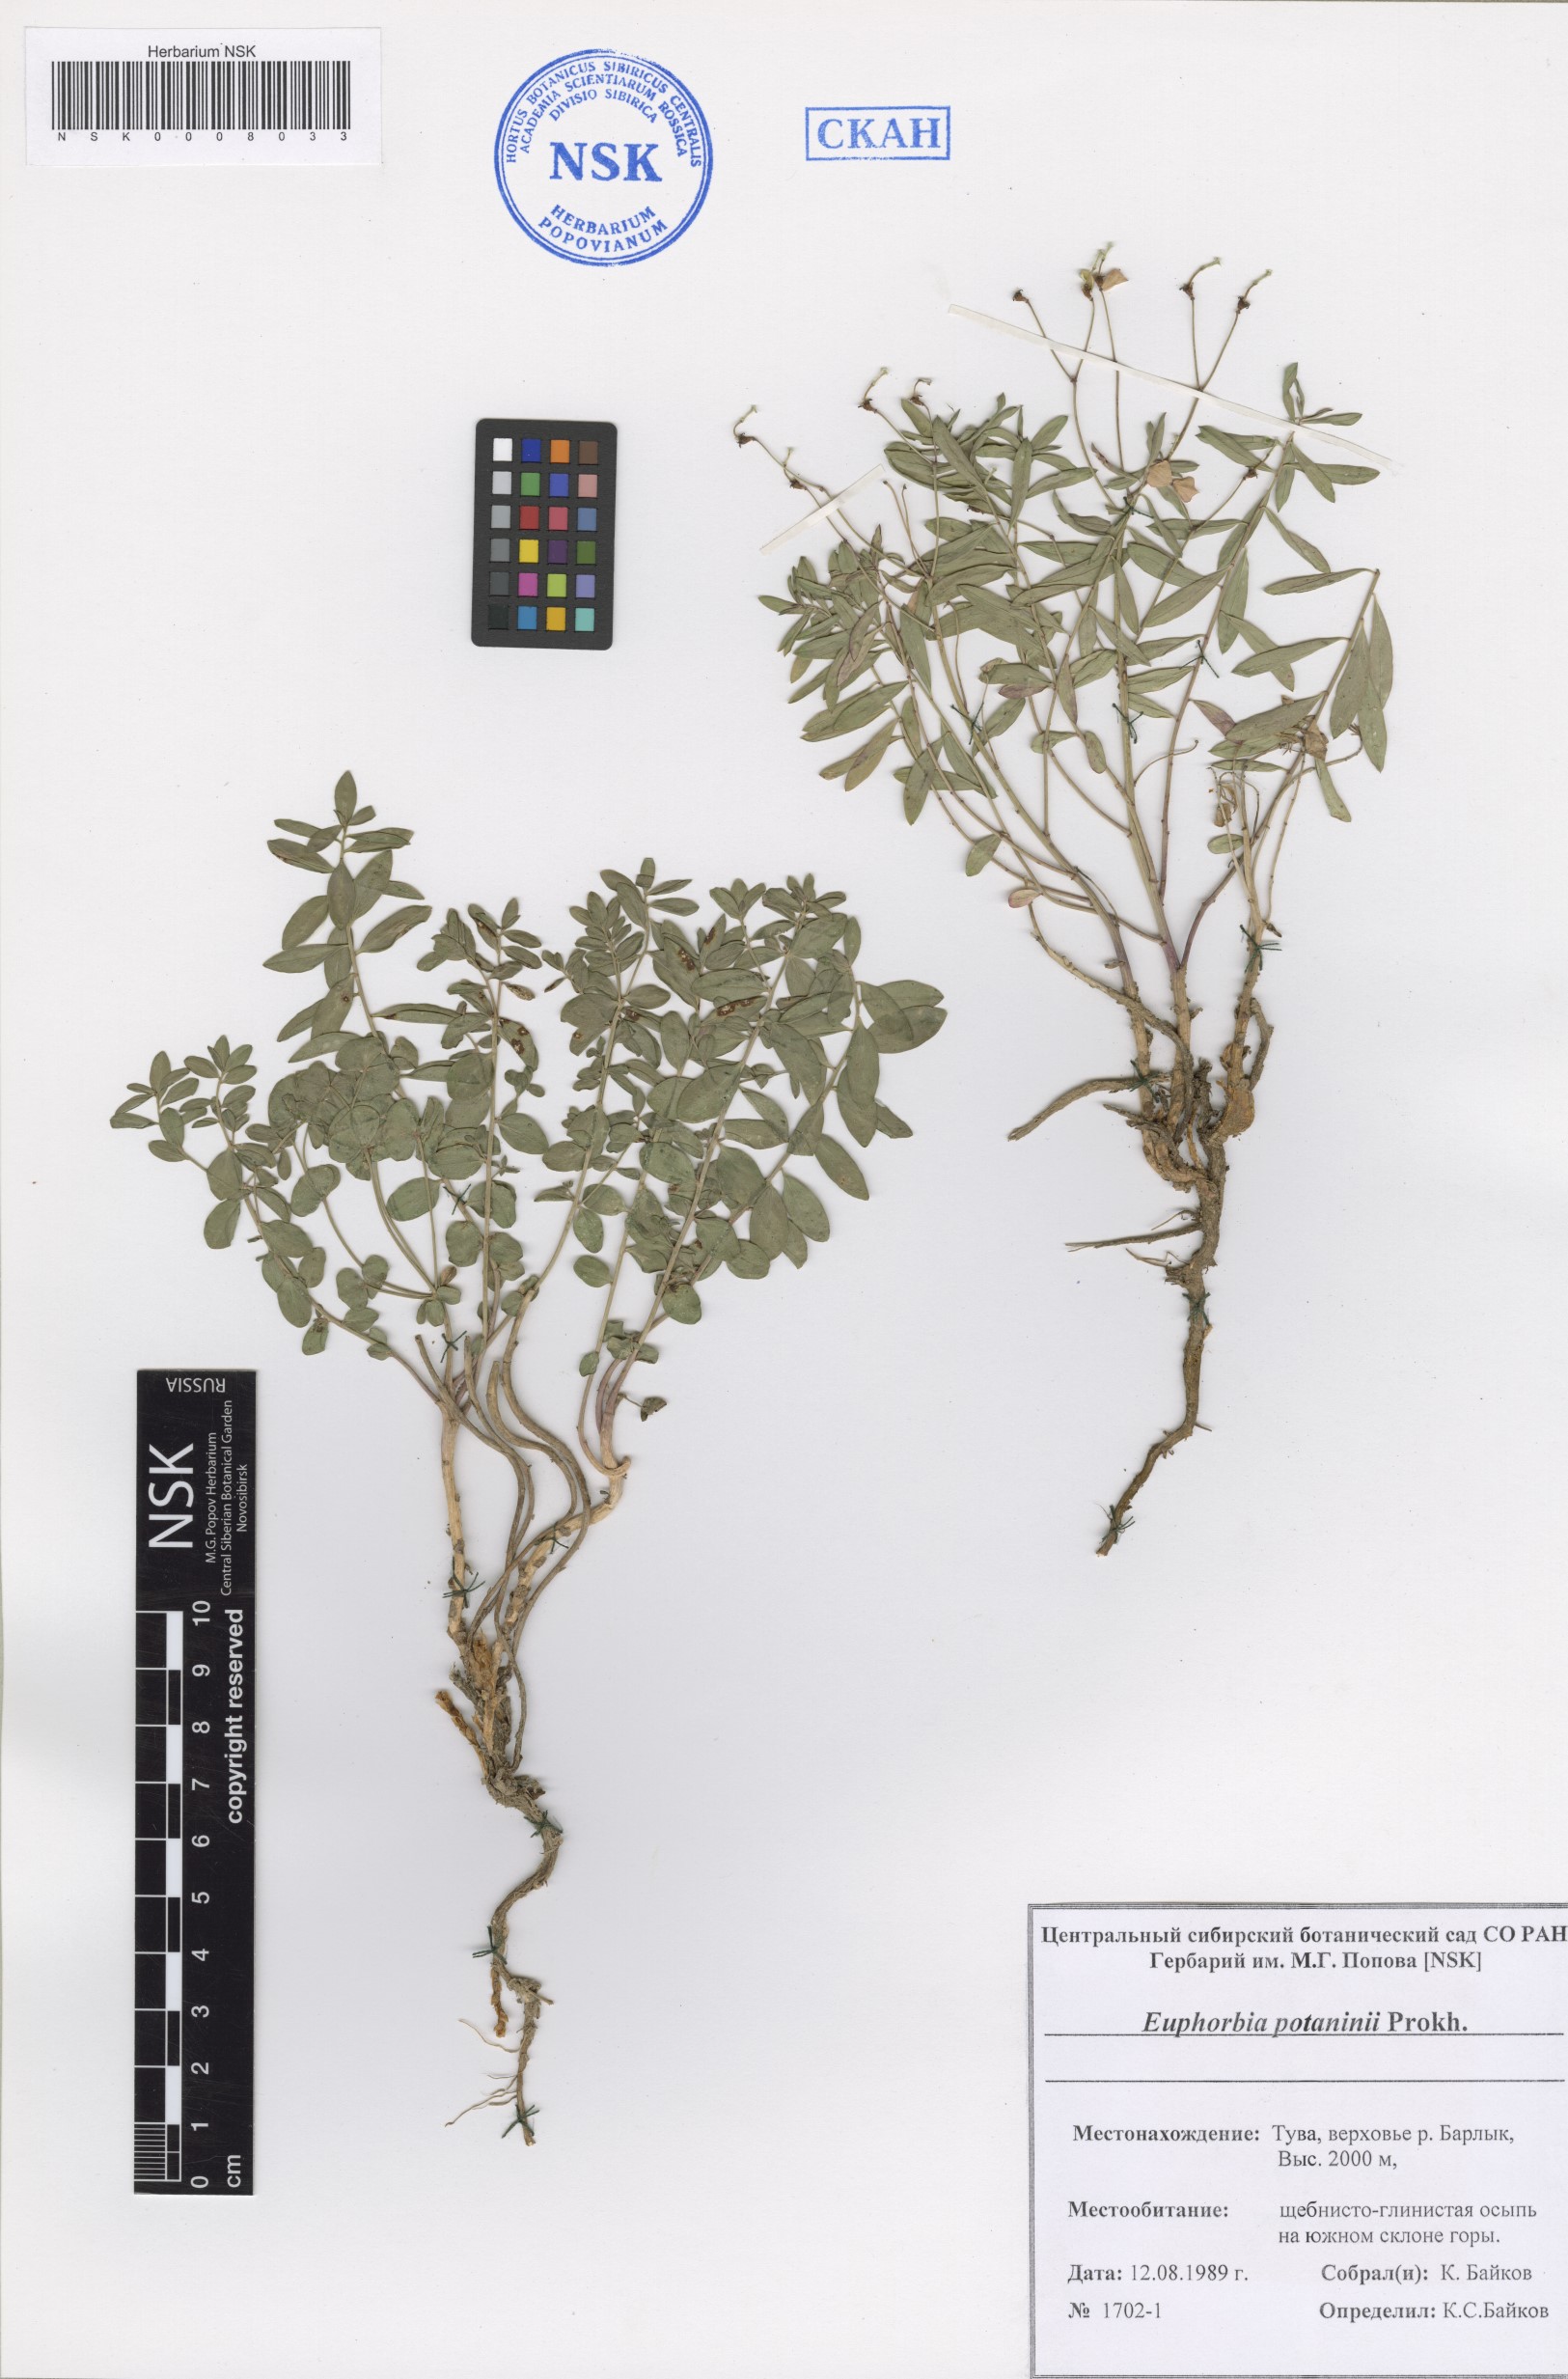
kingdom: Plantae
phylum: Tracheophyta
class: Magnoliopsida
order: Malpighiales
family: Euphorbiaceae
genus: Euphorbia
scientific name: Euphorbia potaninii
